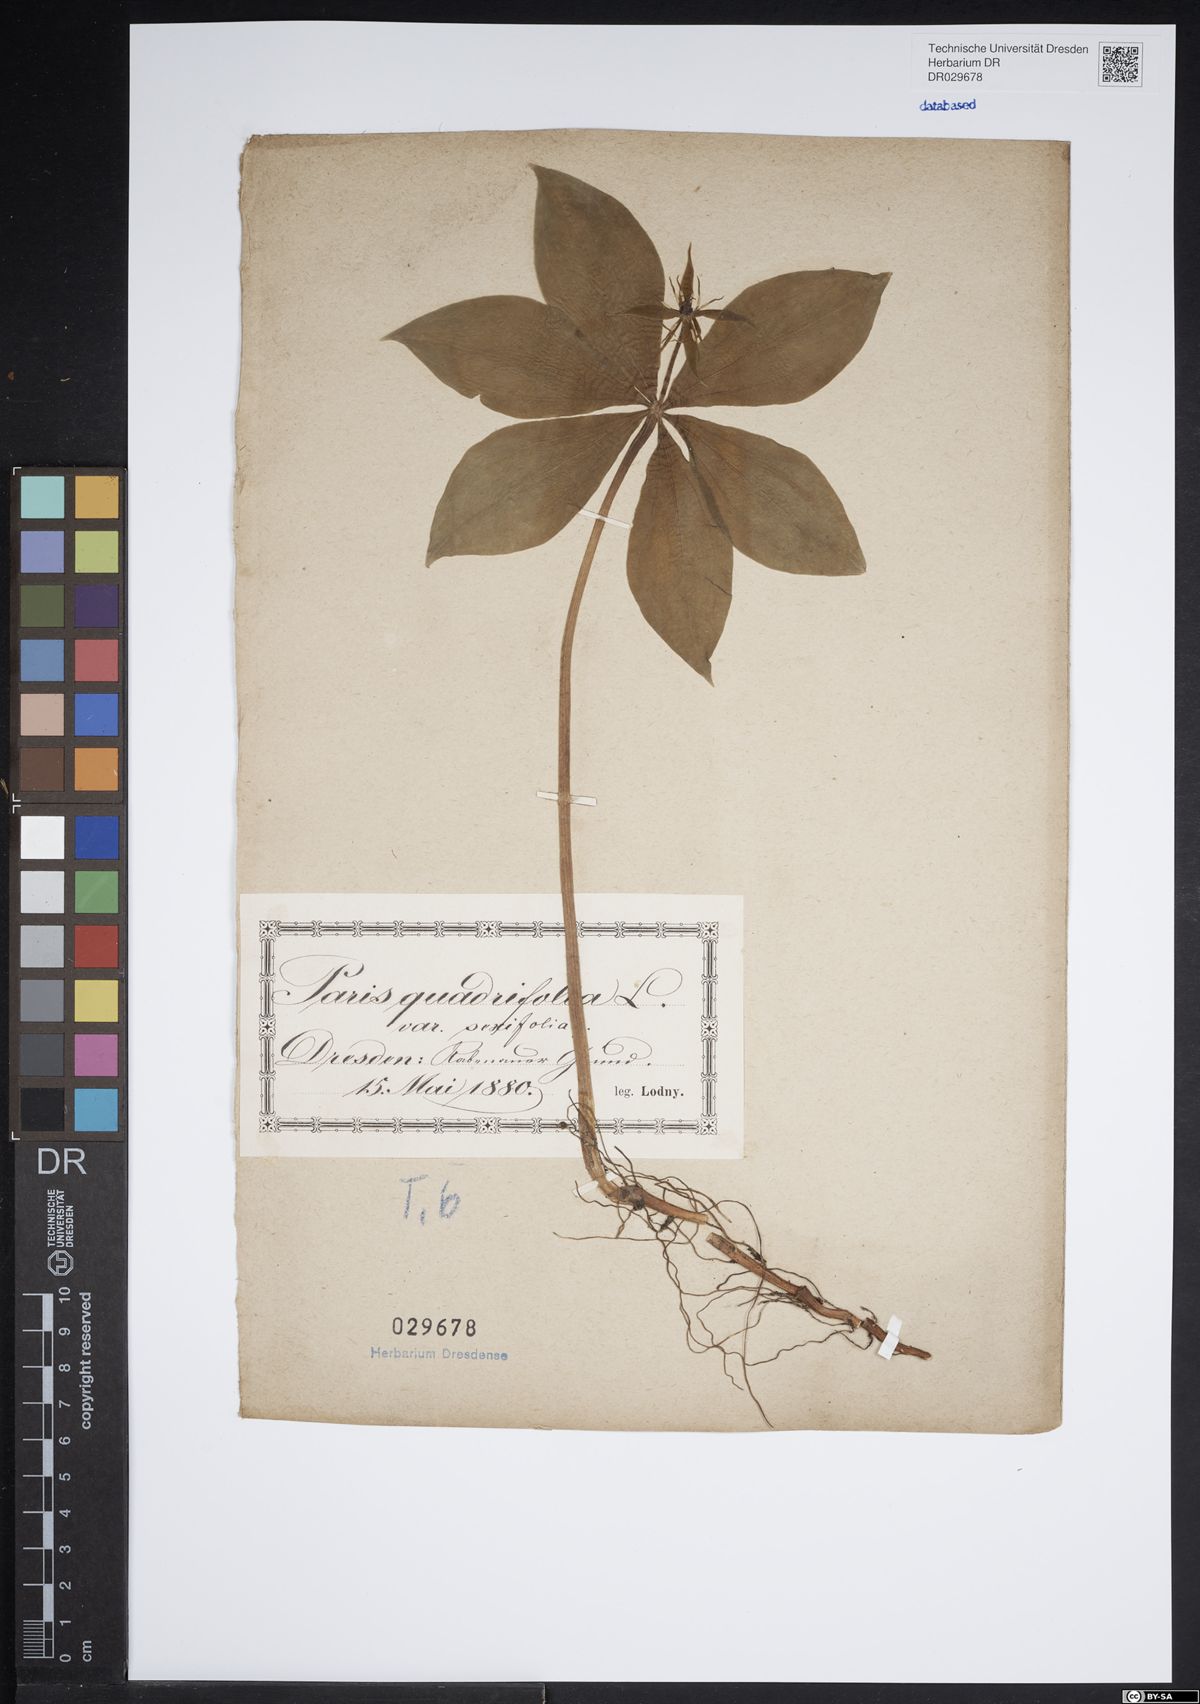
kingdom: Plantae
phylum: Tracheophyta
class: Liliopsida
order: Liliales
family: Melanthiaceae
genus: Paris
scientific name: Paris quadrifolia
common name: Herb-paris
